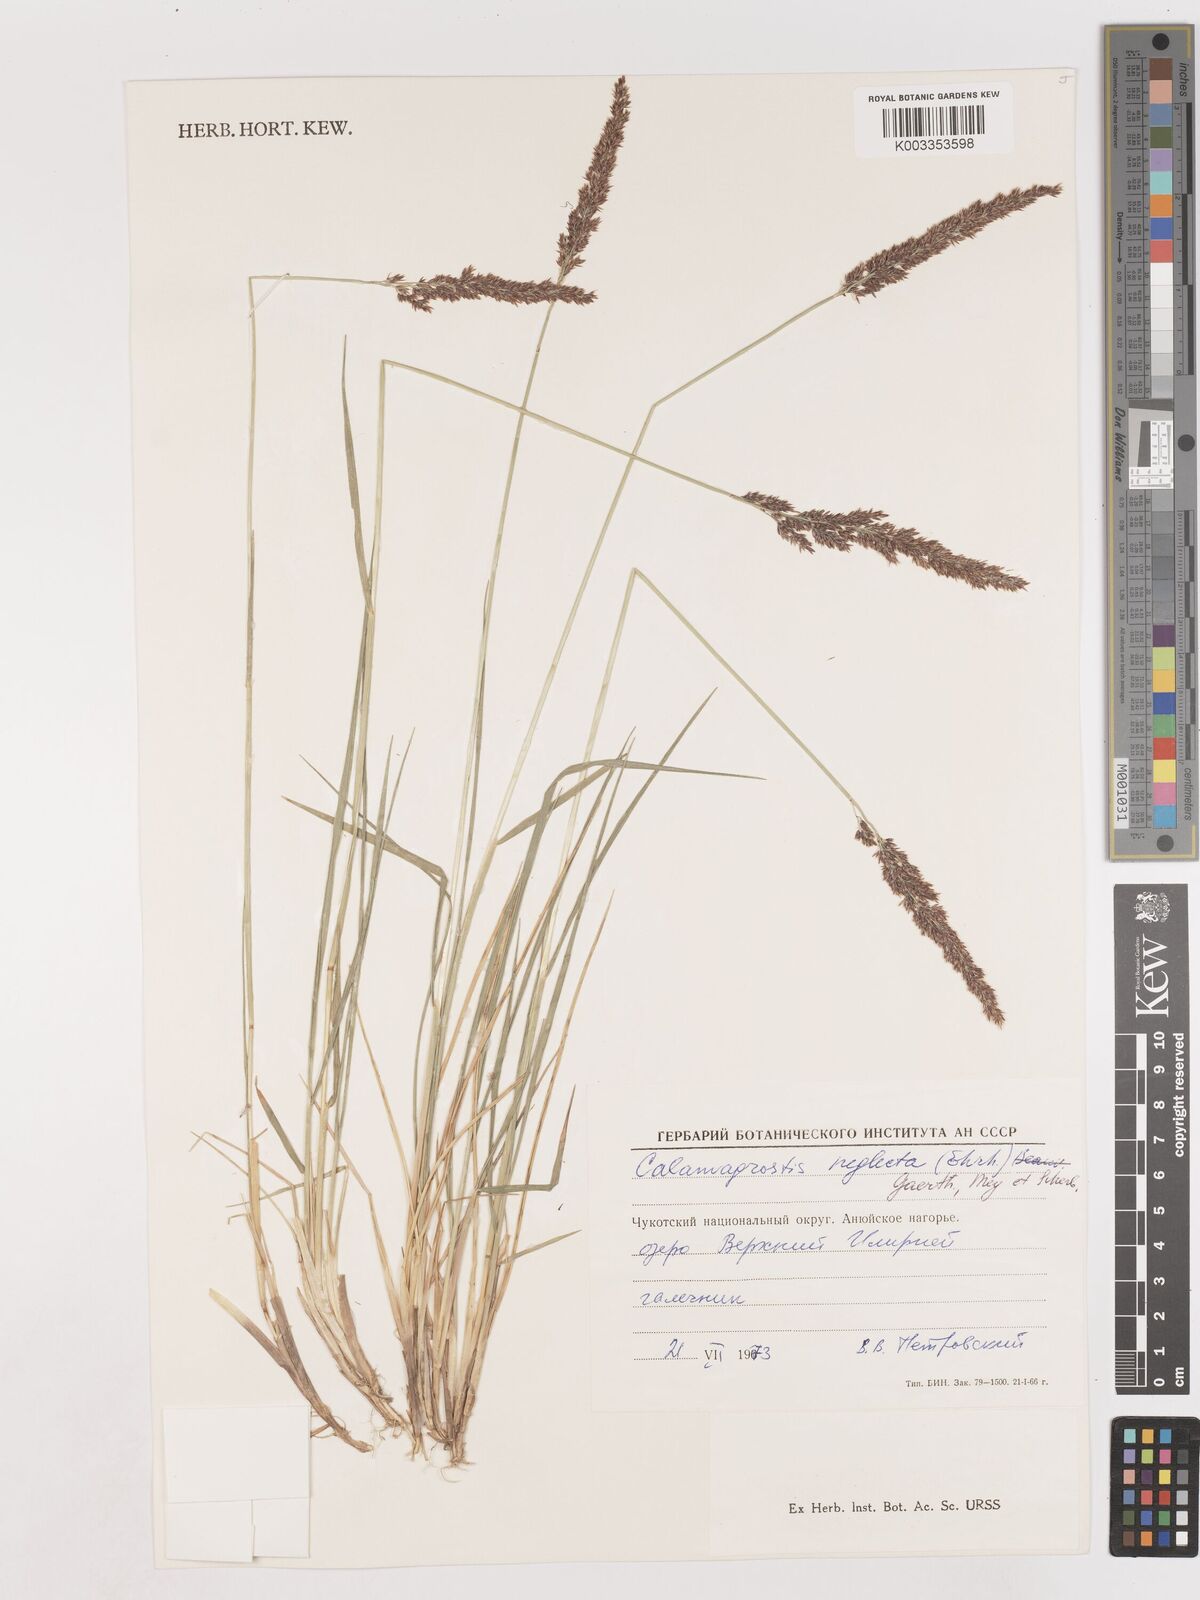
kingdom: Plantae
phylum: Tracheophyta
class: Liliopsida
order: Poales
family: Poaceae
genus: Cinnagrostis
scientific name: Cinnagrostis recta
